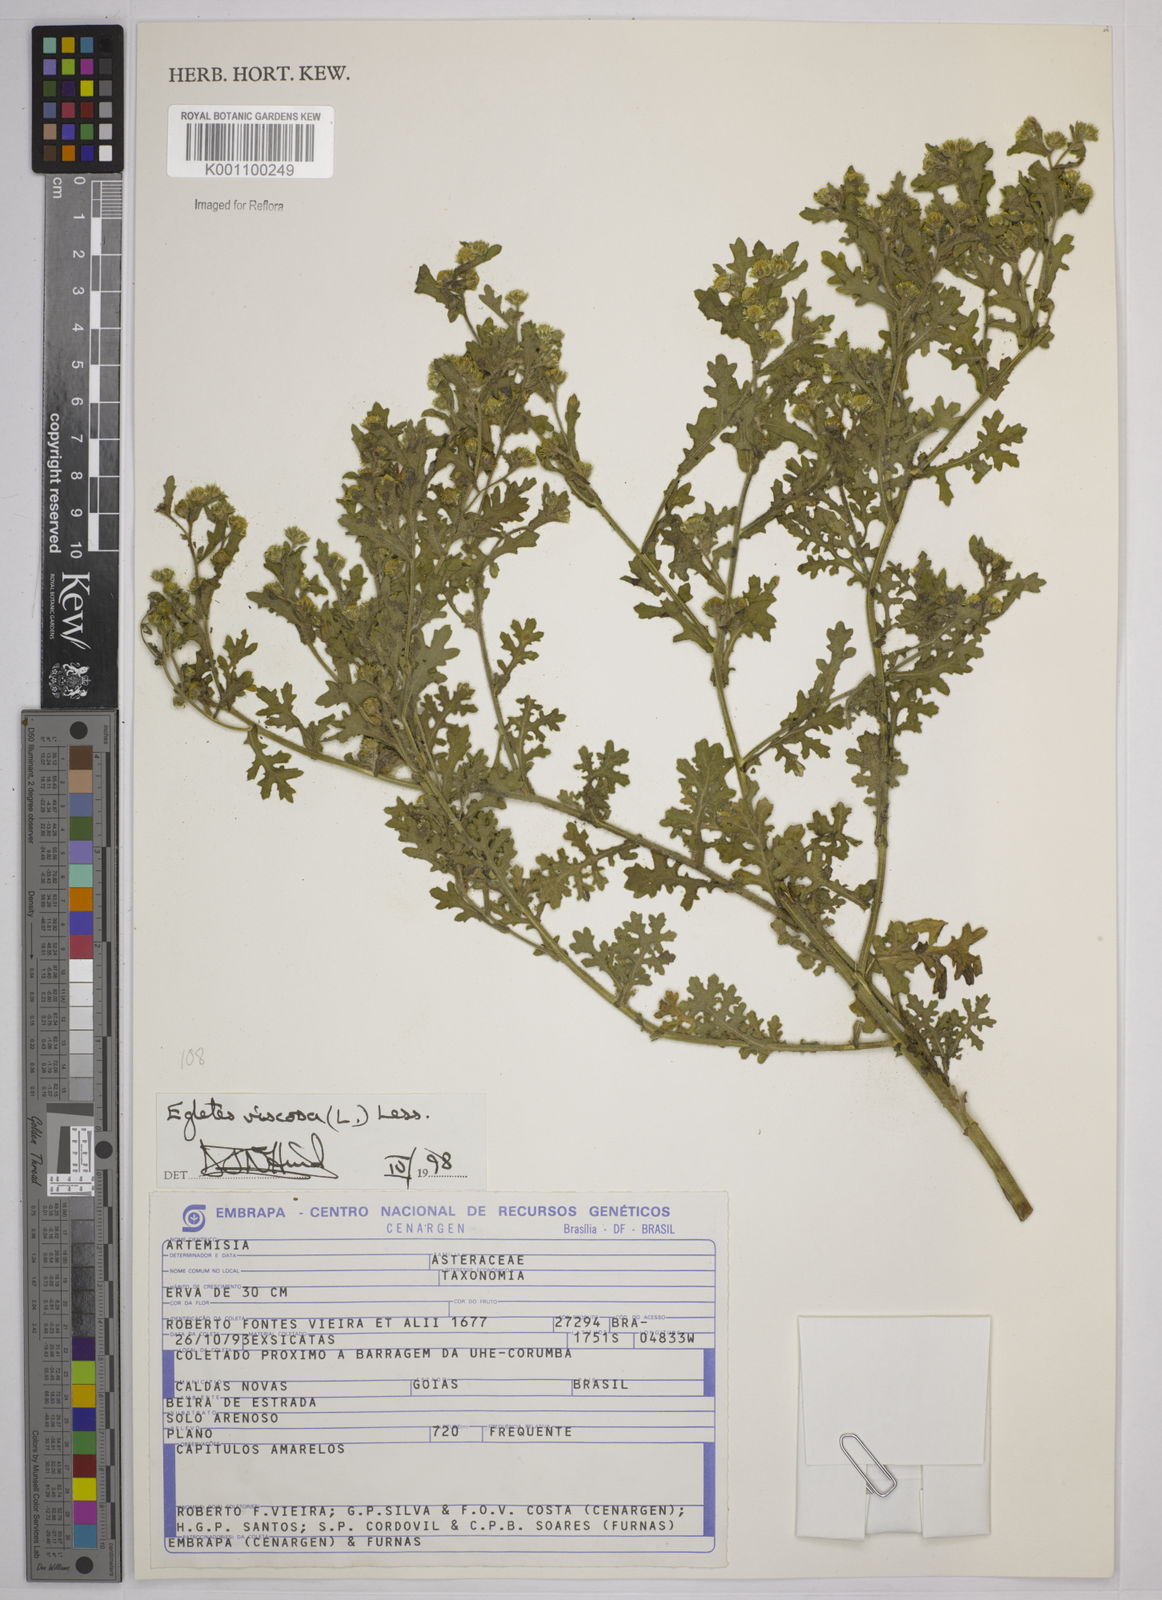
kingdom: Plantae
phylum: Tracheophyta
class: Magnoliopsida
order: Asterales
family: Asteraceae
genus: Egletes
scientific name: Egletes viscosa
